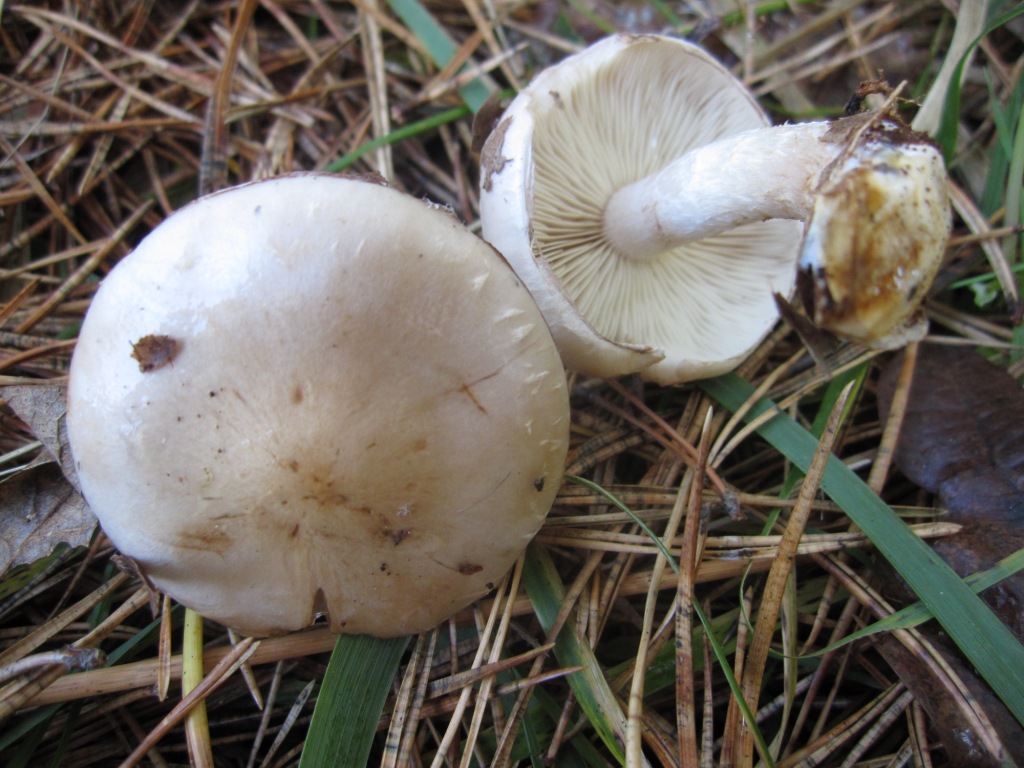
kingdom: Fungi
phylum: Basidiomycota
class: Agaricomycetes
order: Agaricales
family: Strophariaceae
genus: Pholiota
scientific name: Pholiota lenta
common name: løv-skælhat
